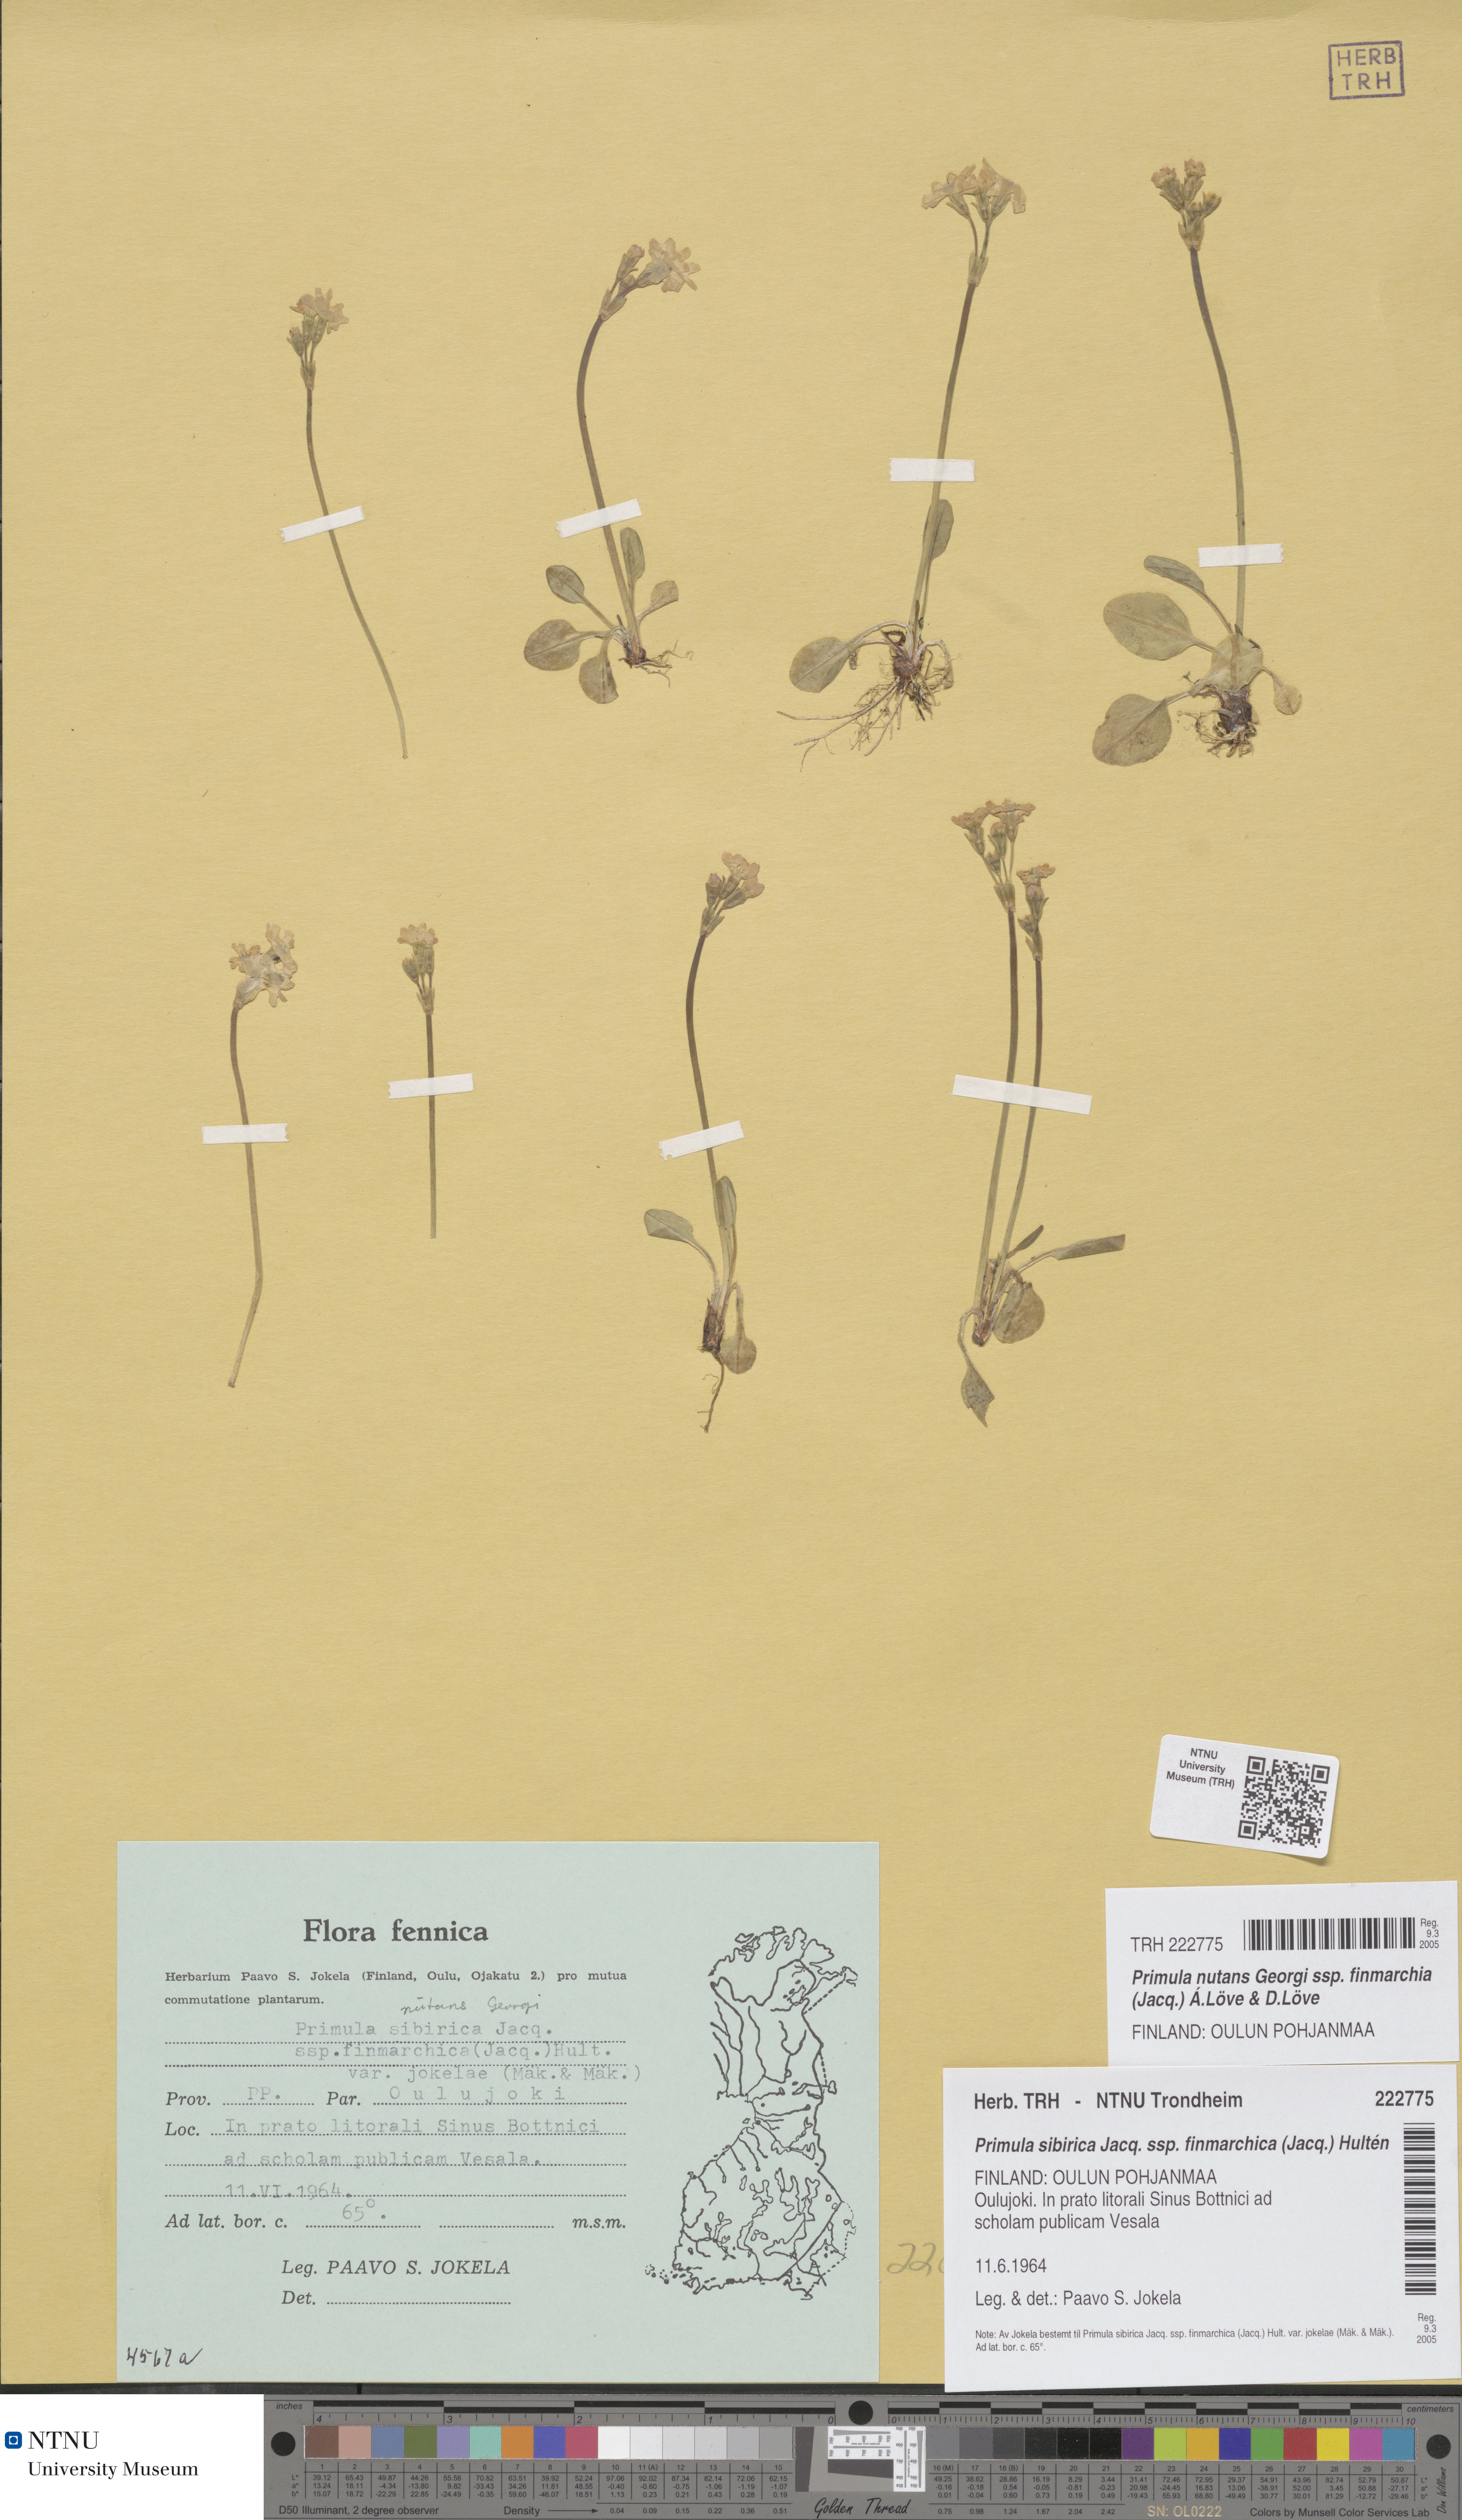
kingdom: Plantae
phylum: Tracheophyta
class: Magnoliopsida
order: Ericales
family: Primulaceae
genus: Primula
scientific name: Primula nutans
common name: Siberian primrose
